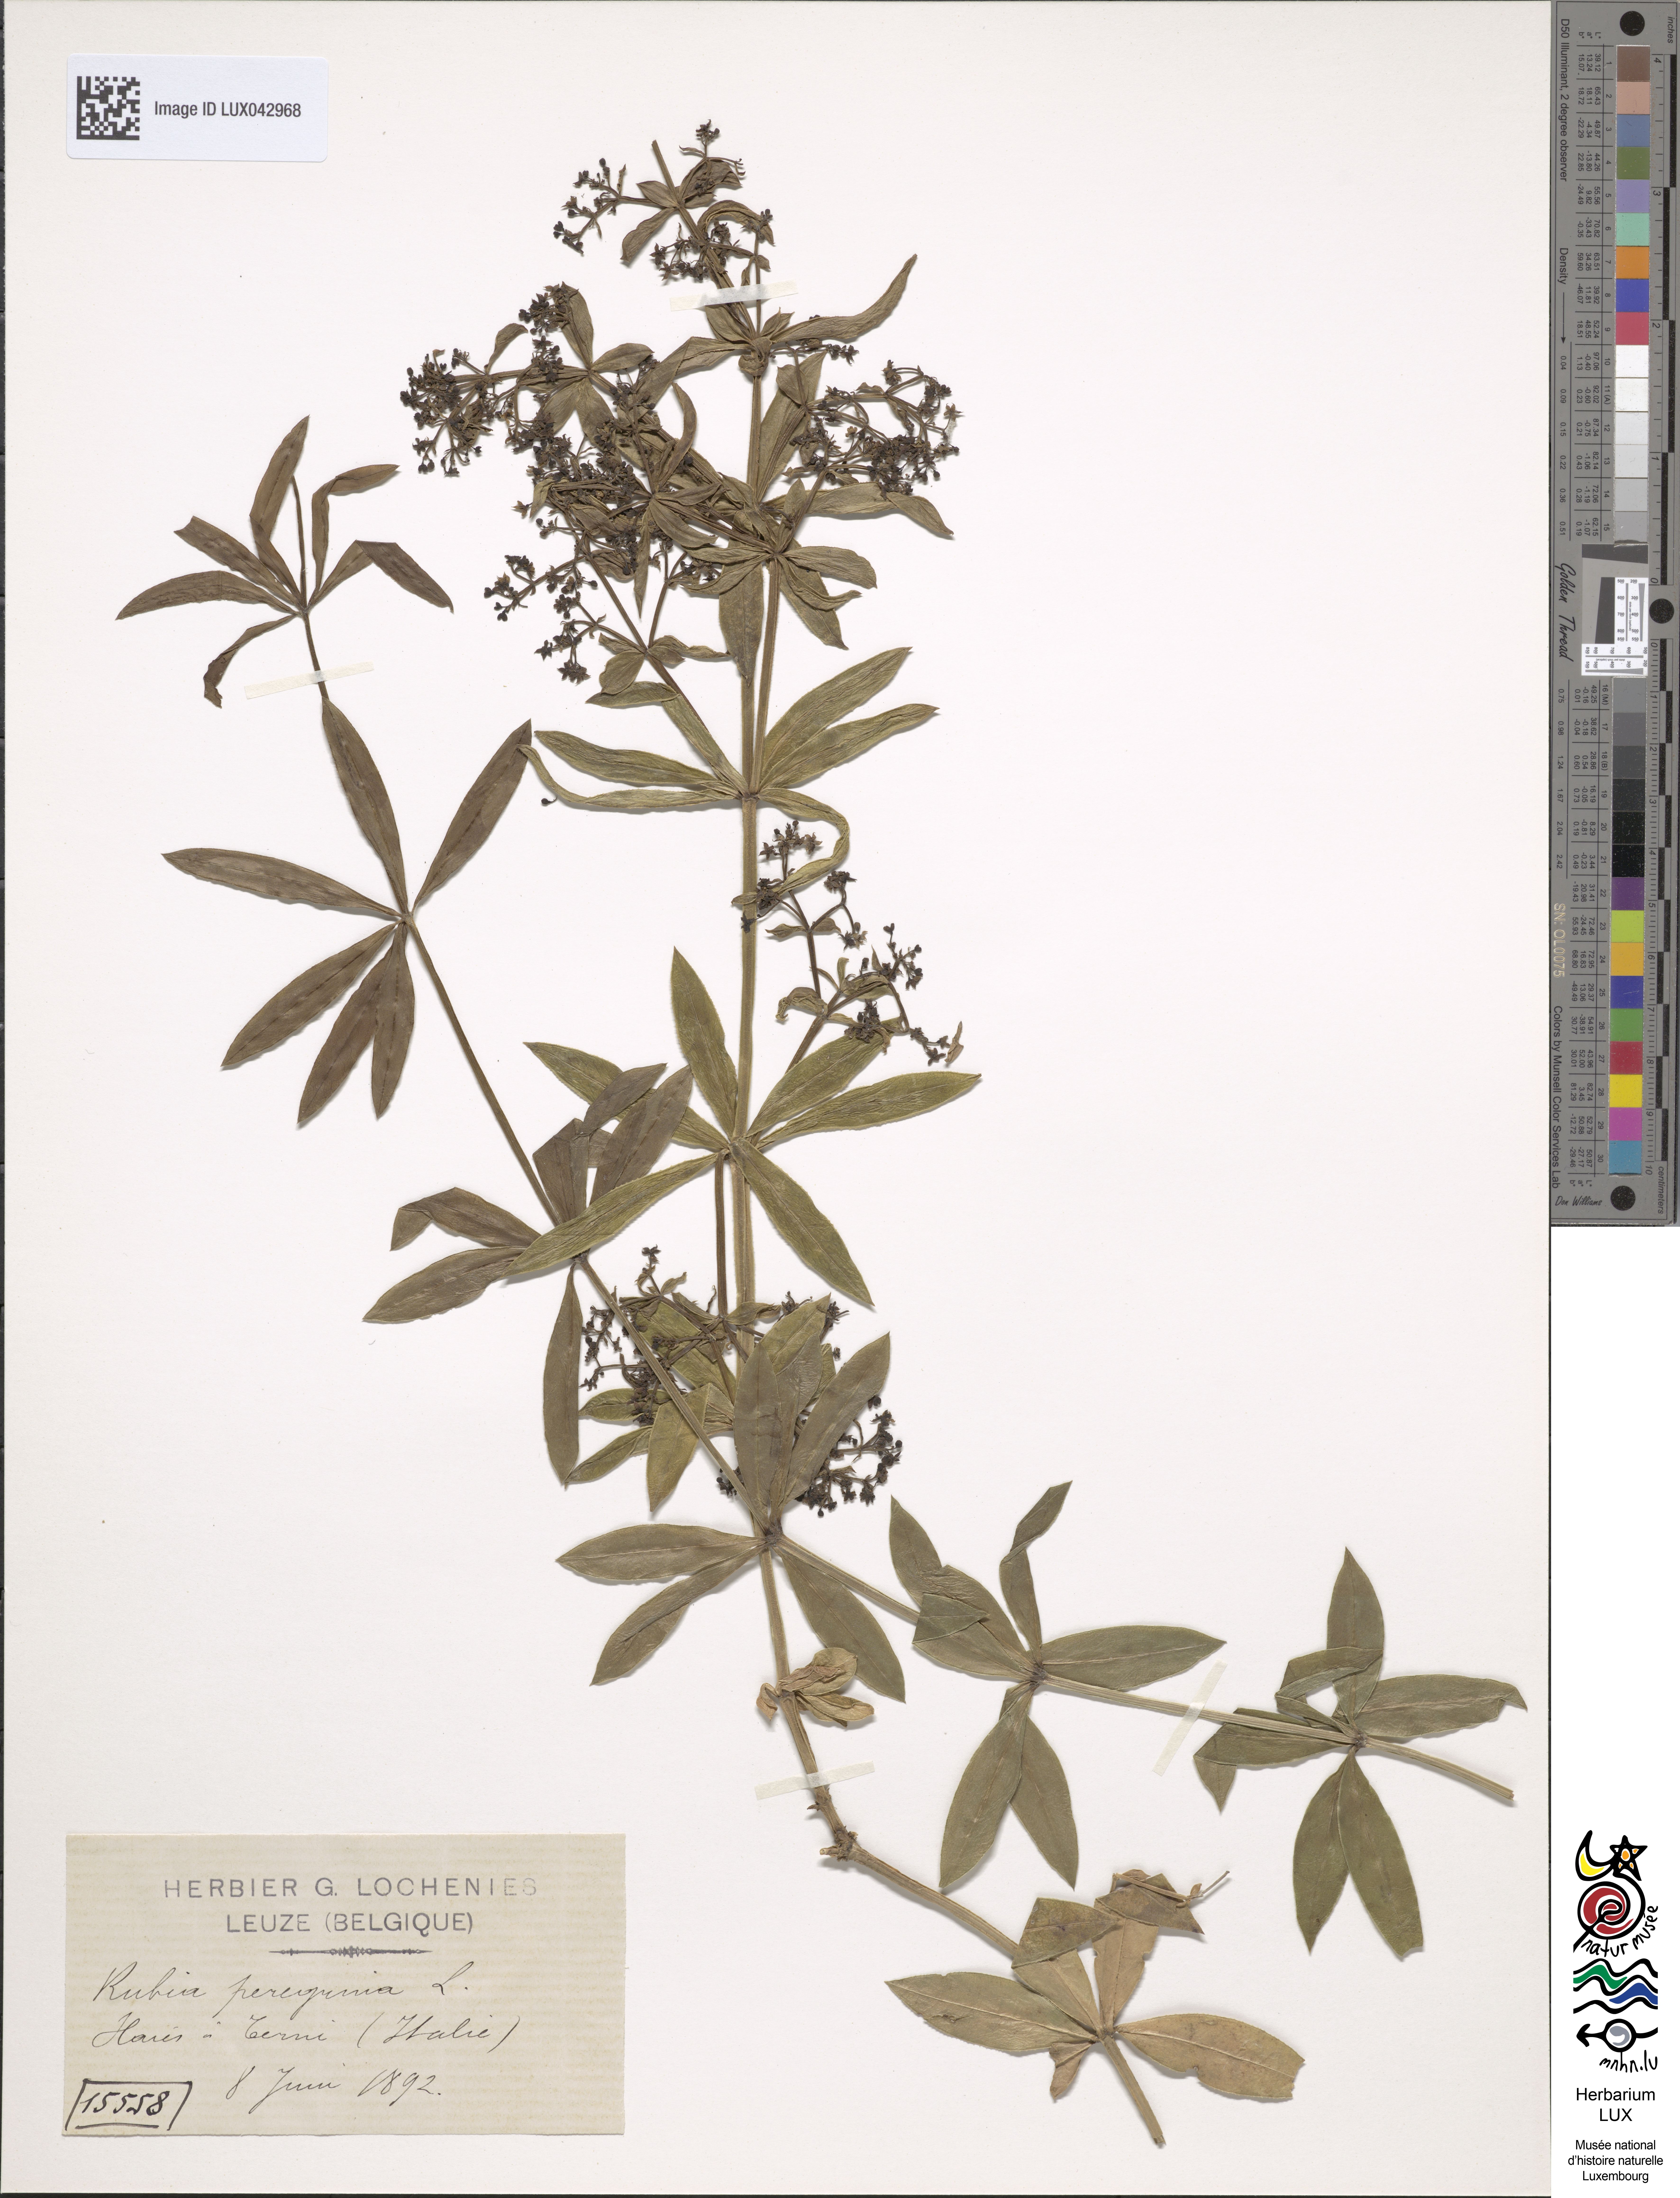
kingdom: Plantae
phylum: Tracheophyta
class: Magnoliopsida
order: Gentianales
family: Rubiaceae
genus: Rubia
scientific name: Rubia peregrina
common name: Wild madder
